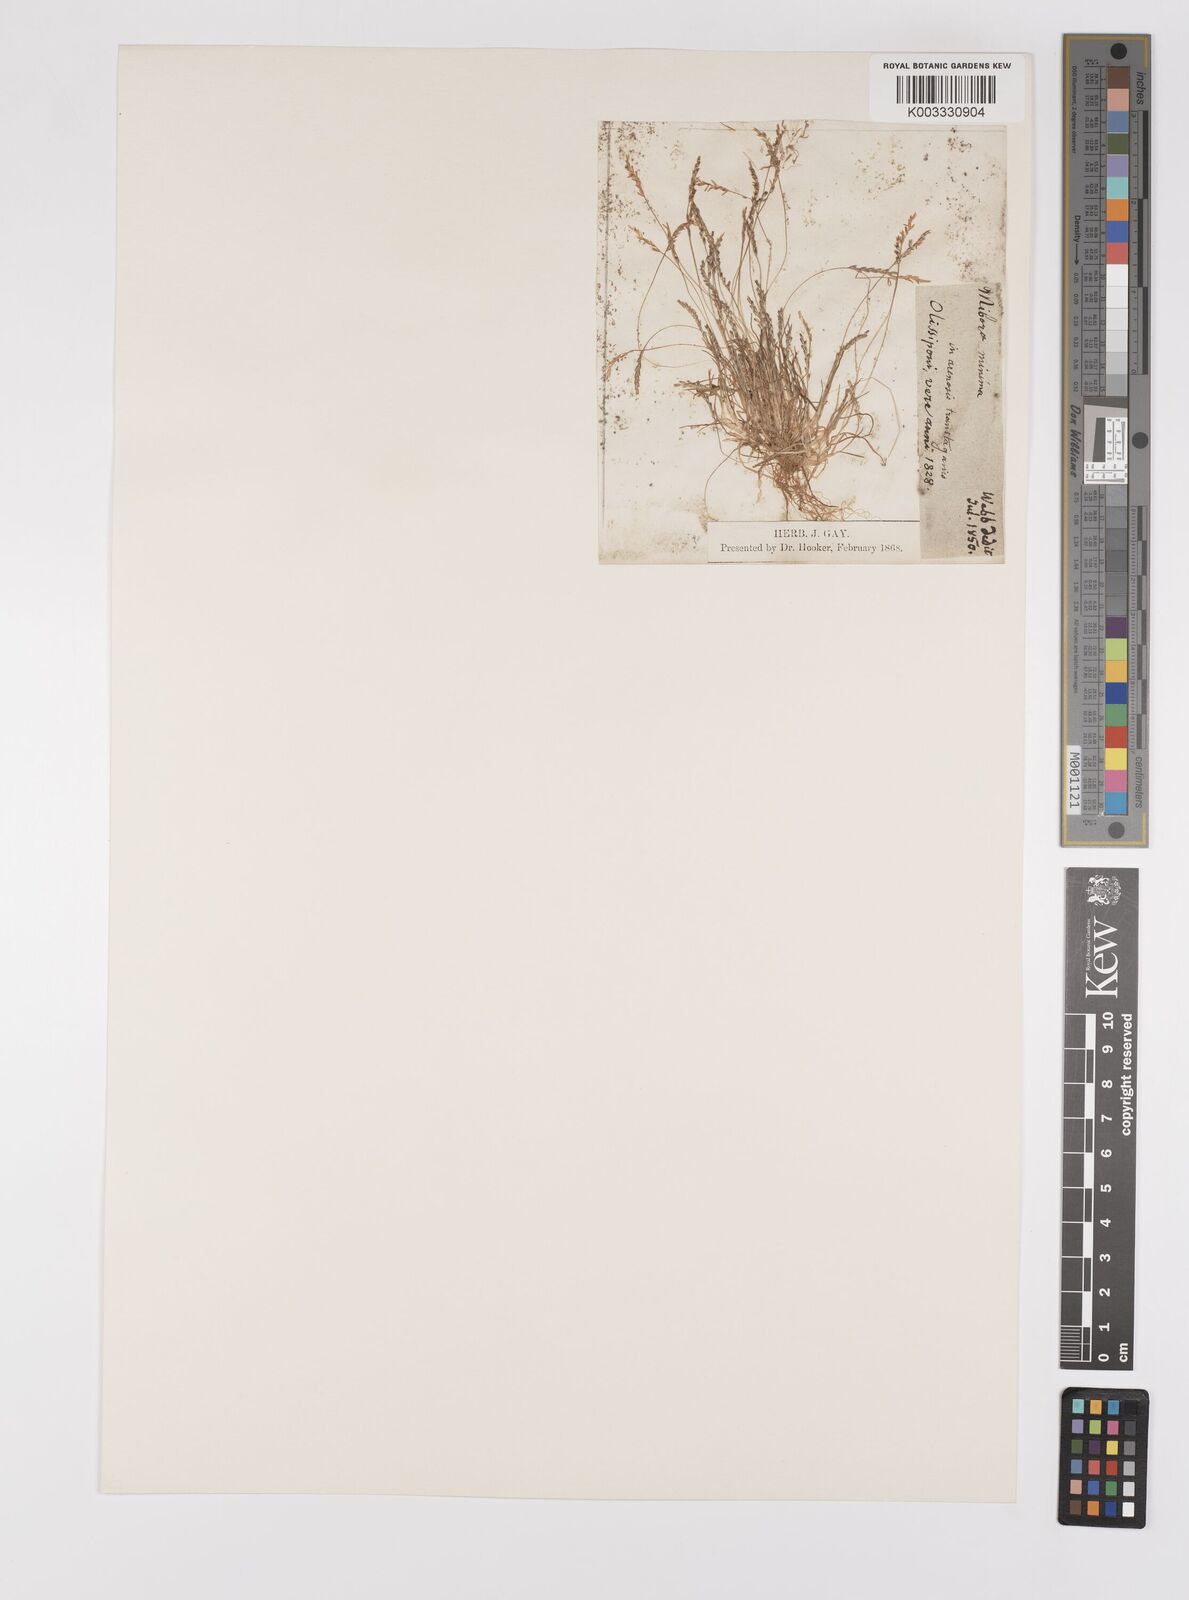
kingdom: Plantae
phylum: Tracheophyta
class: Liliopsida
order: Poales
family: Poaceae
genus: Mibora
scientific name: Mibora minima
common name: Early sand-grass
